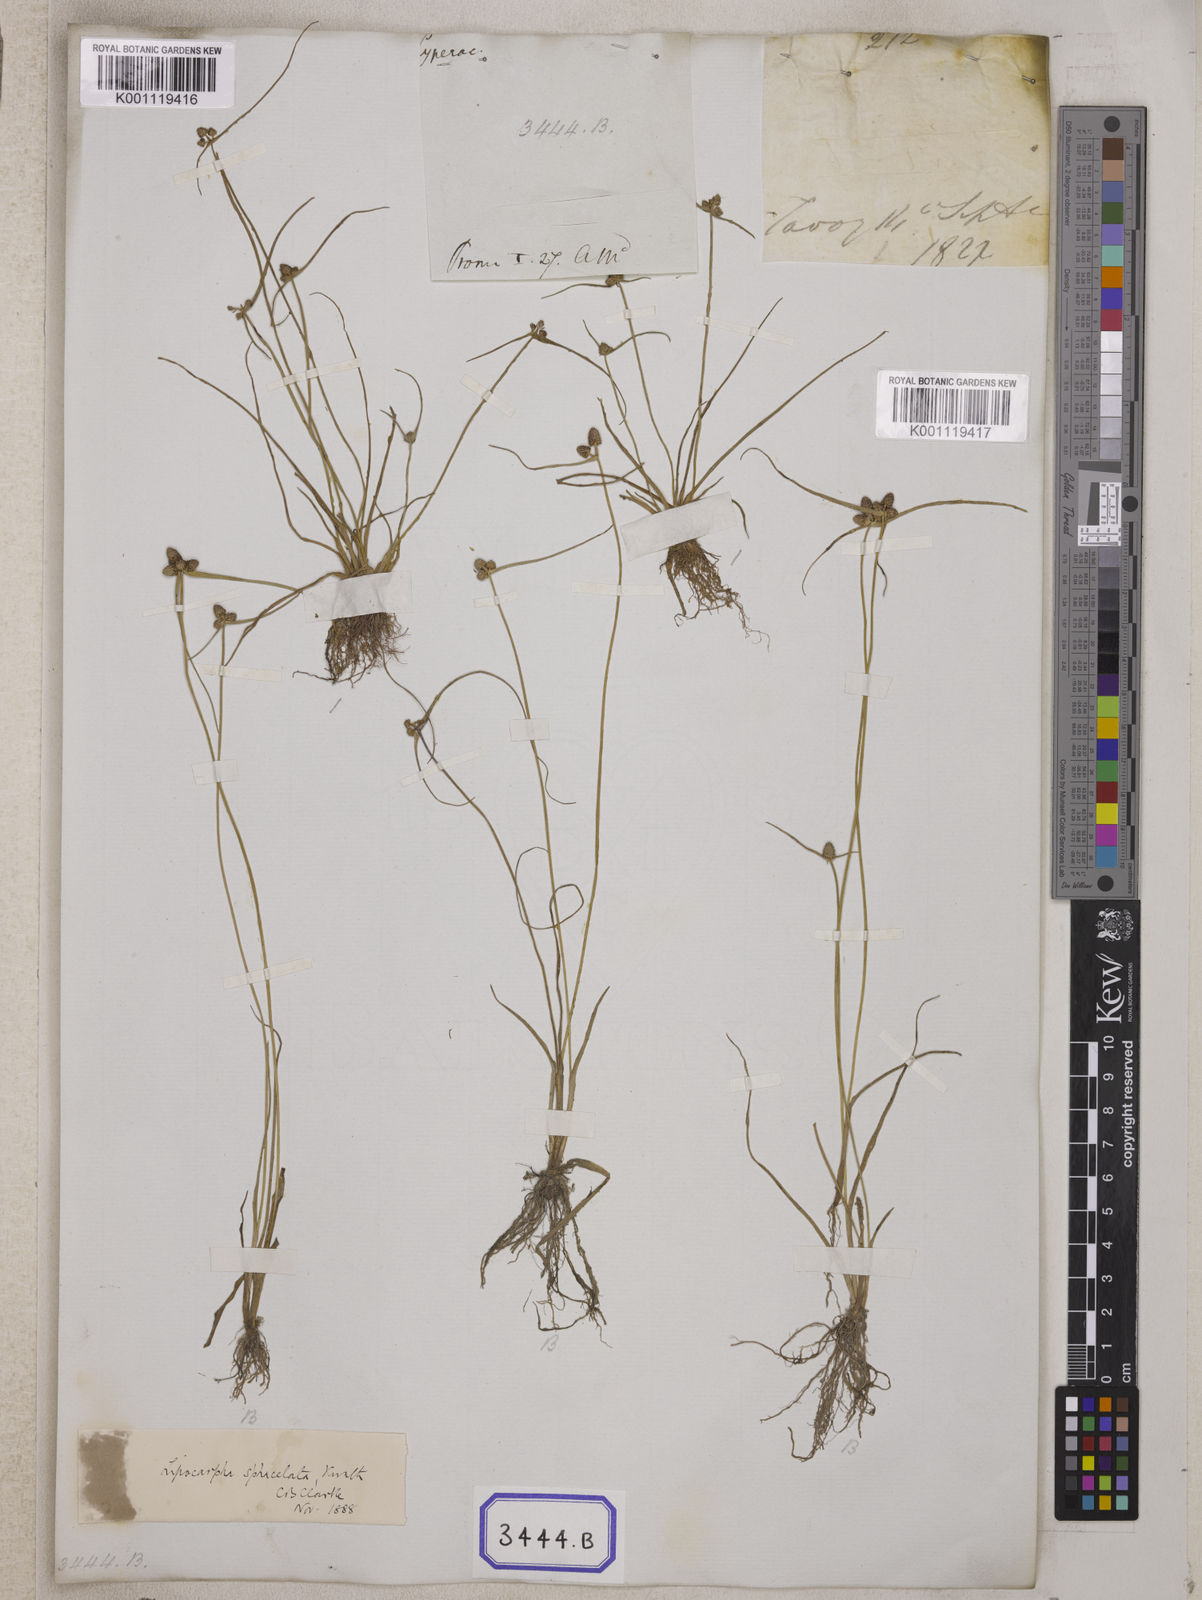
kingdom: Plantae
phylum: Tracheophyta
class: Liliopsida
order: Poales
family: Cyperaceae
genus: Cyperus
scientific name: Cyperus
